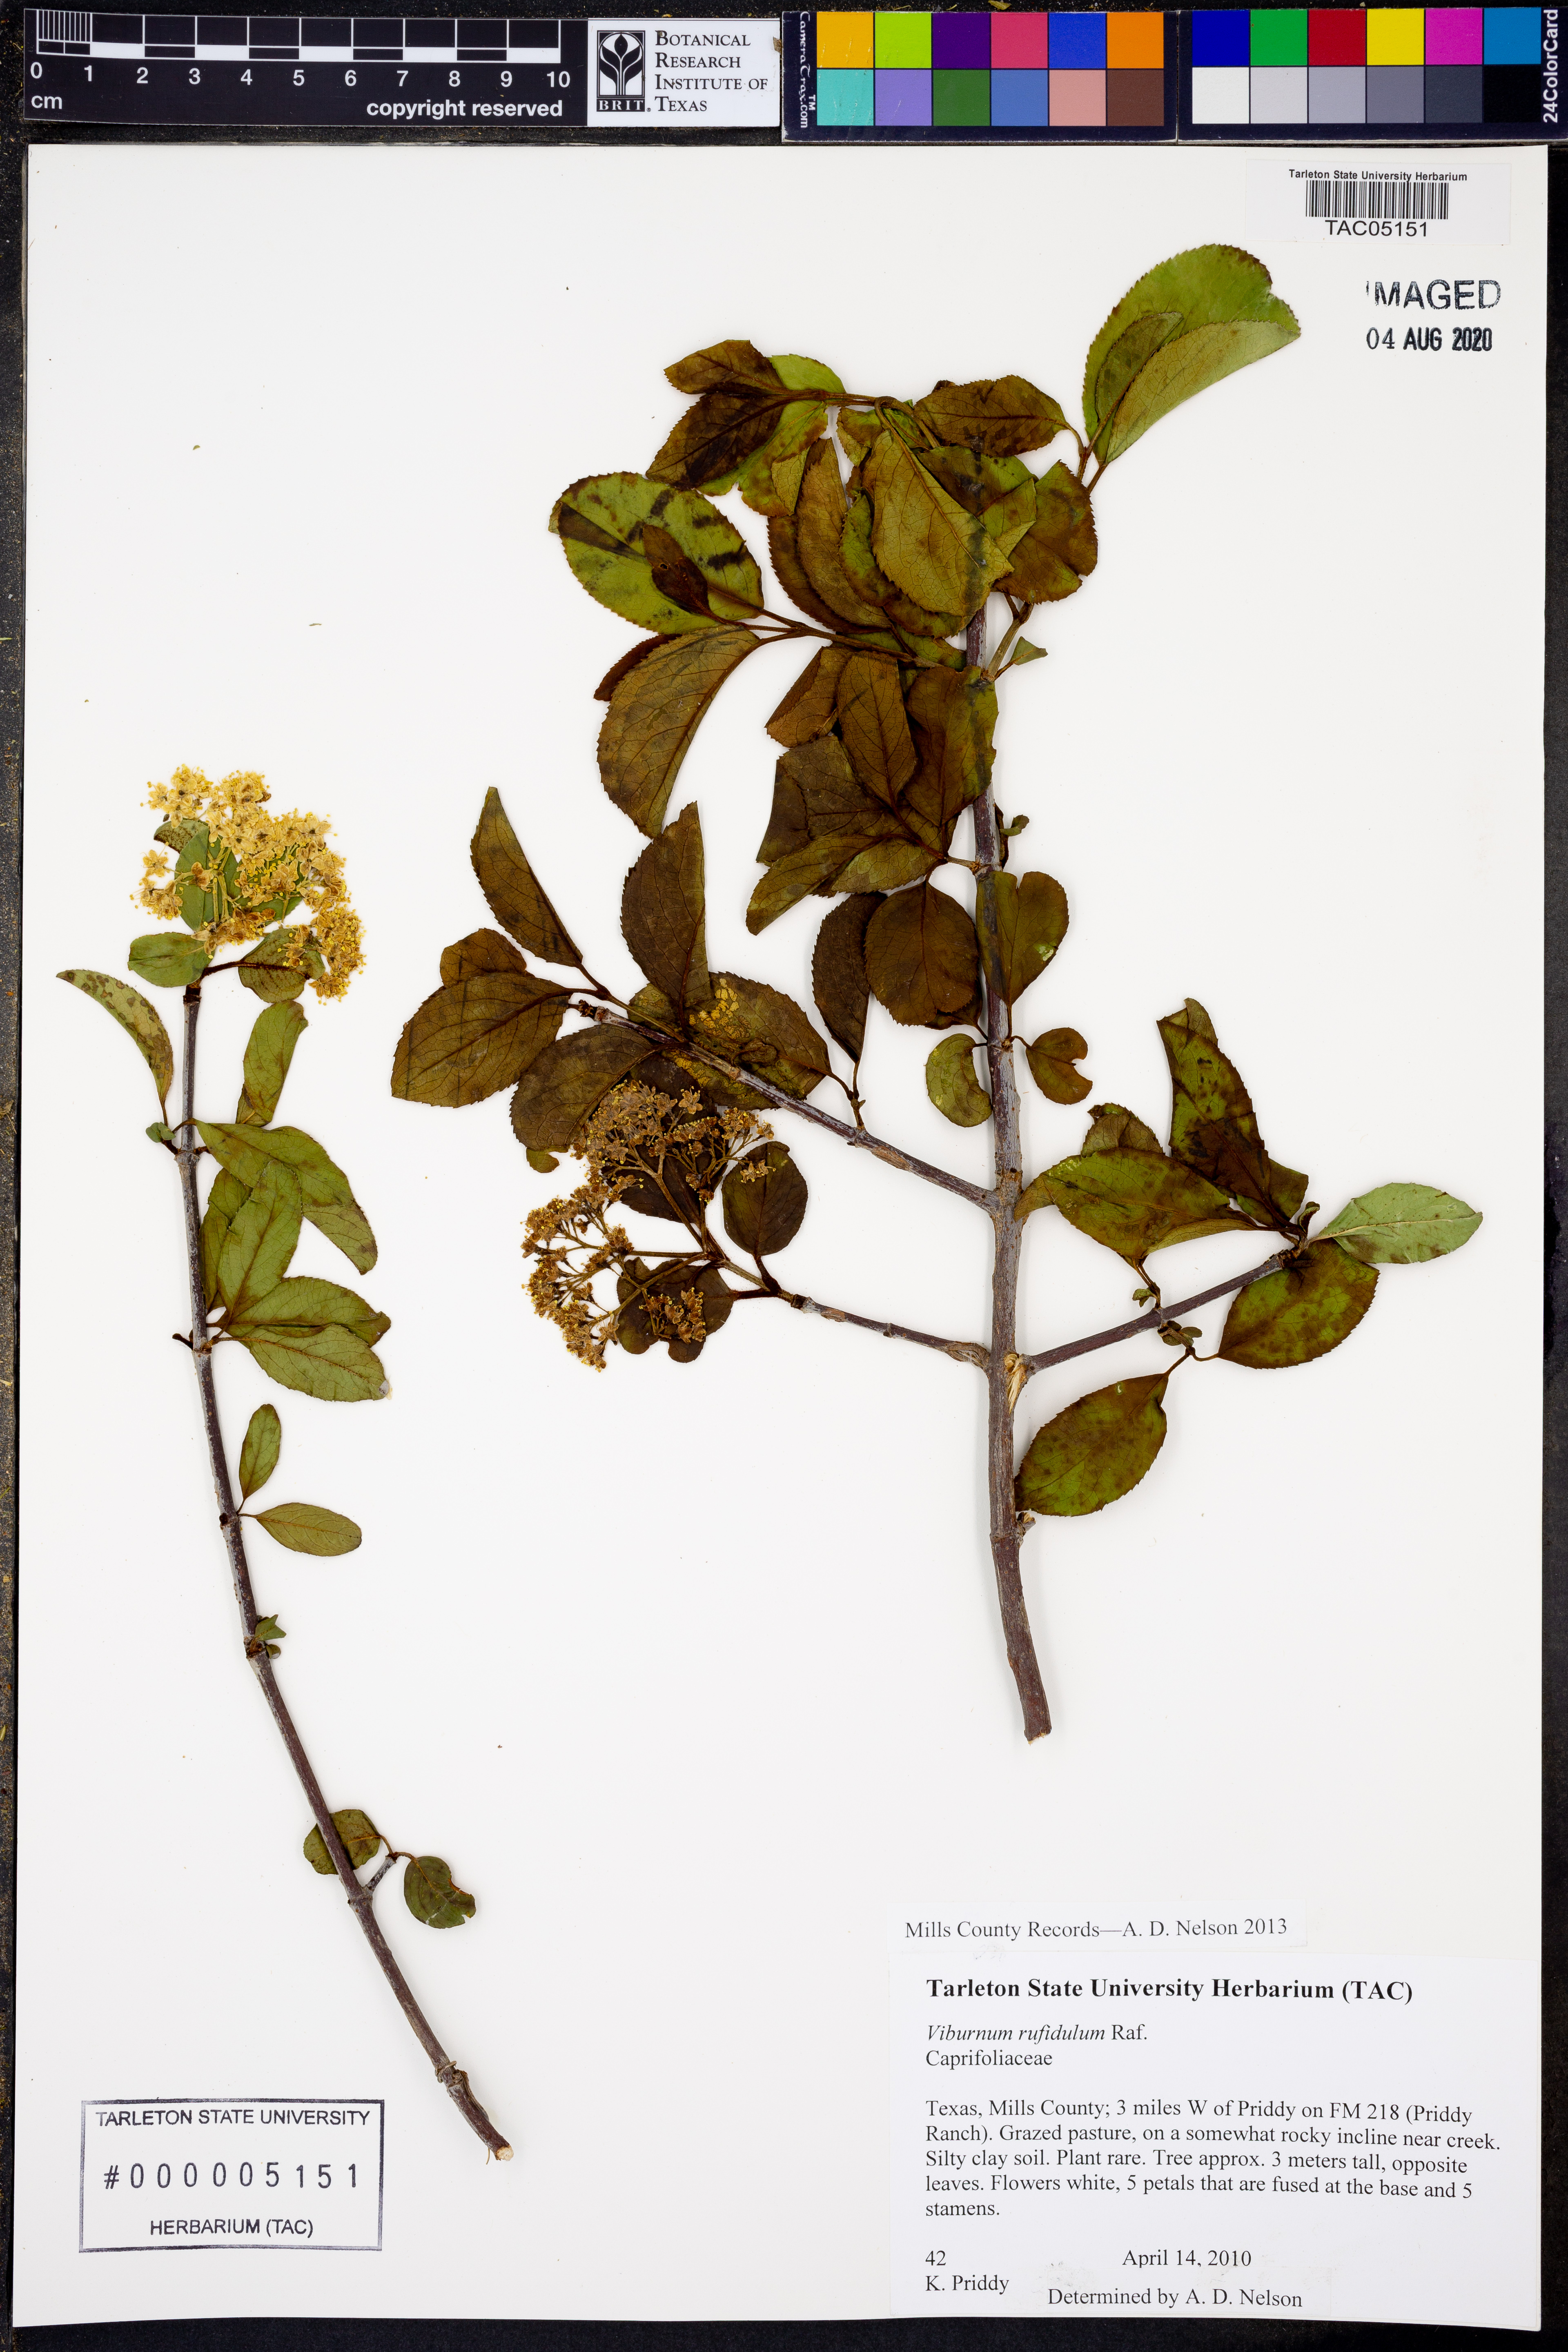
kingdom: Plantae
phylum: Tracheophyta
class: Magnoliopsida
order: Dipsacales
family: Viburnaceae
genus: Viburnum
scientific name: Viburnum rufidulum
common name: Blue haw
